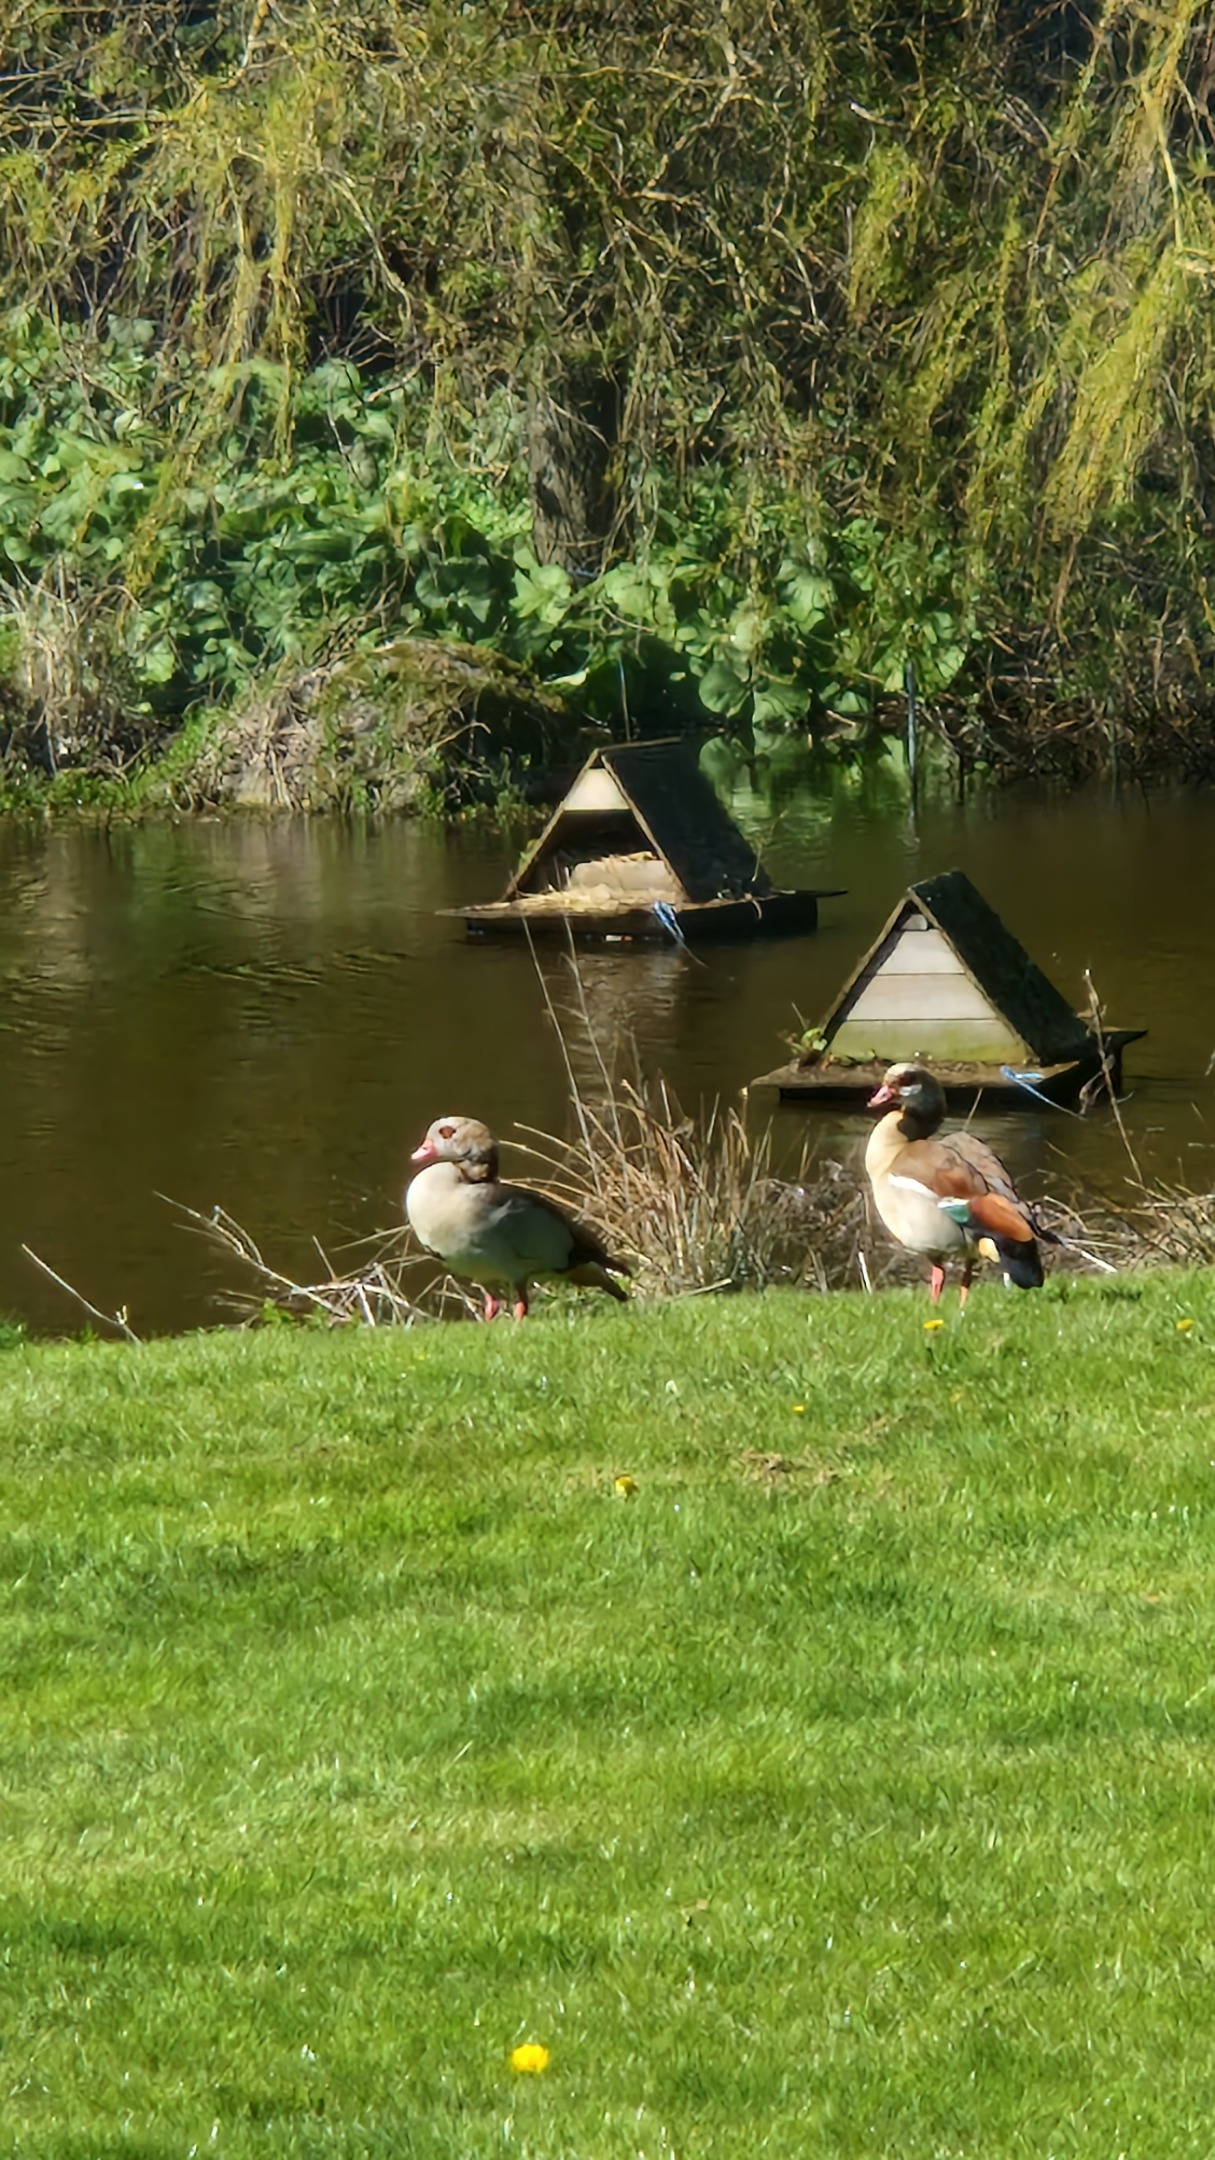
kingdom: Animalia
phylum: Chordata
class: Aves
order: Anseriformes
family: Anatidae
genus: Alopochen
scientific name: Alopochen aegyptiaca
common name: Nilgås
